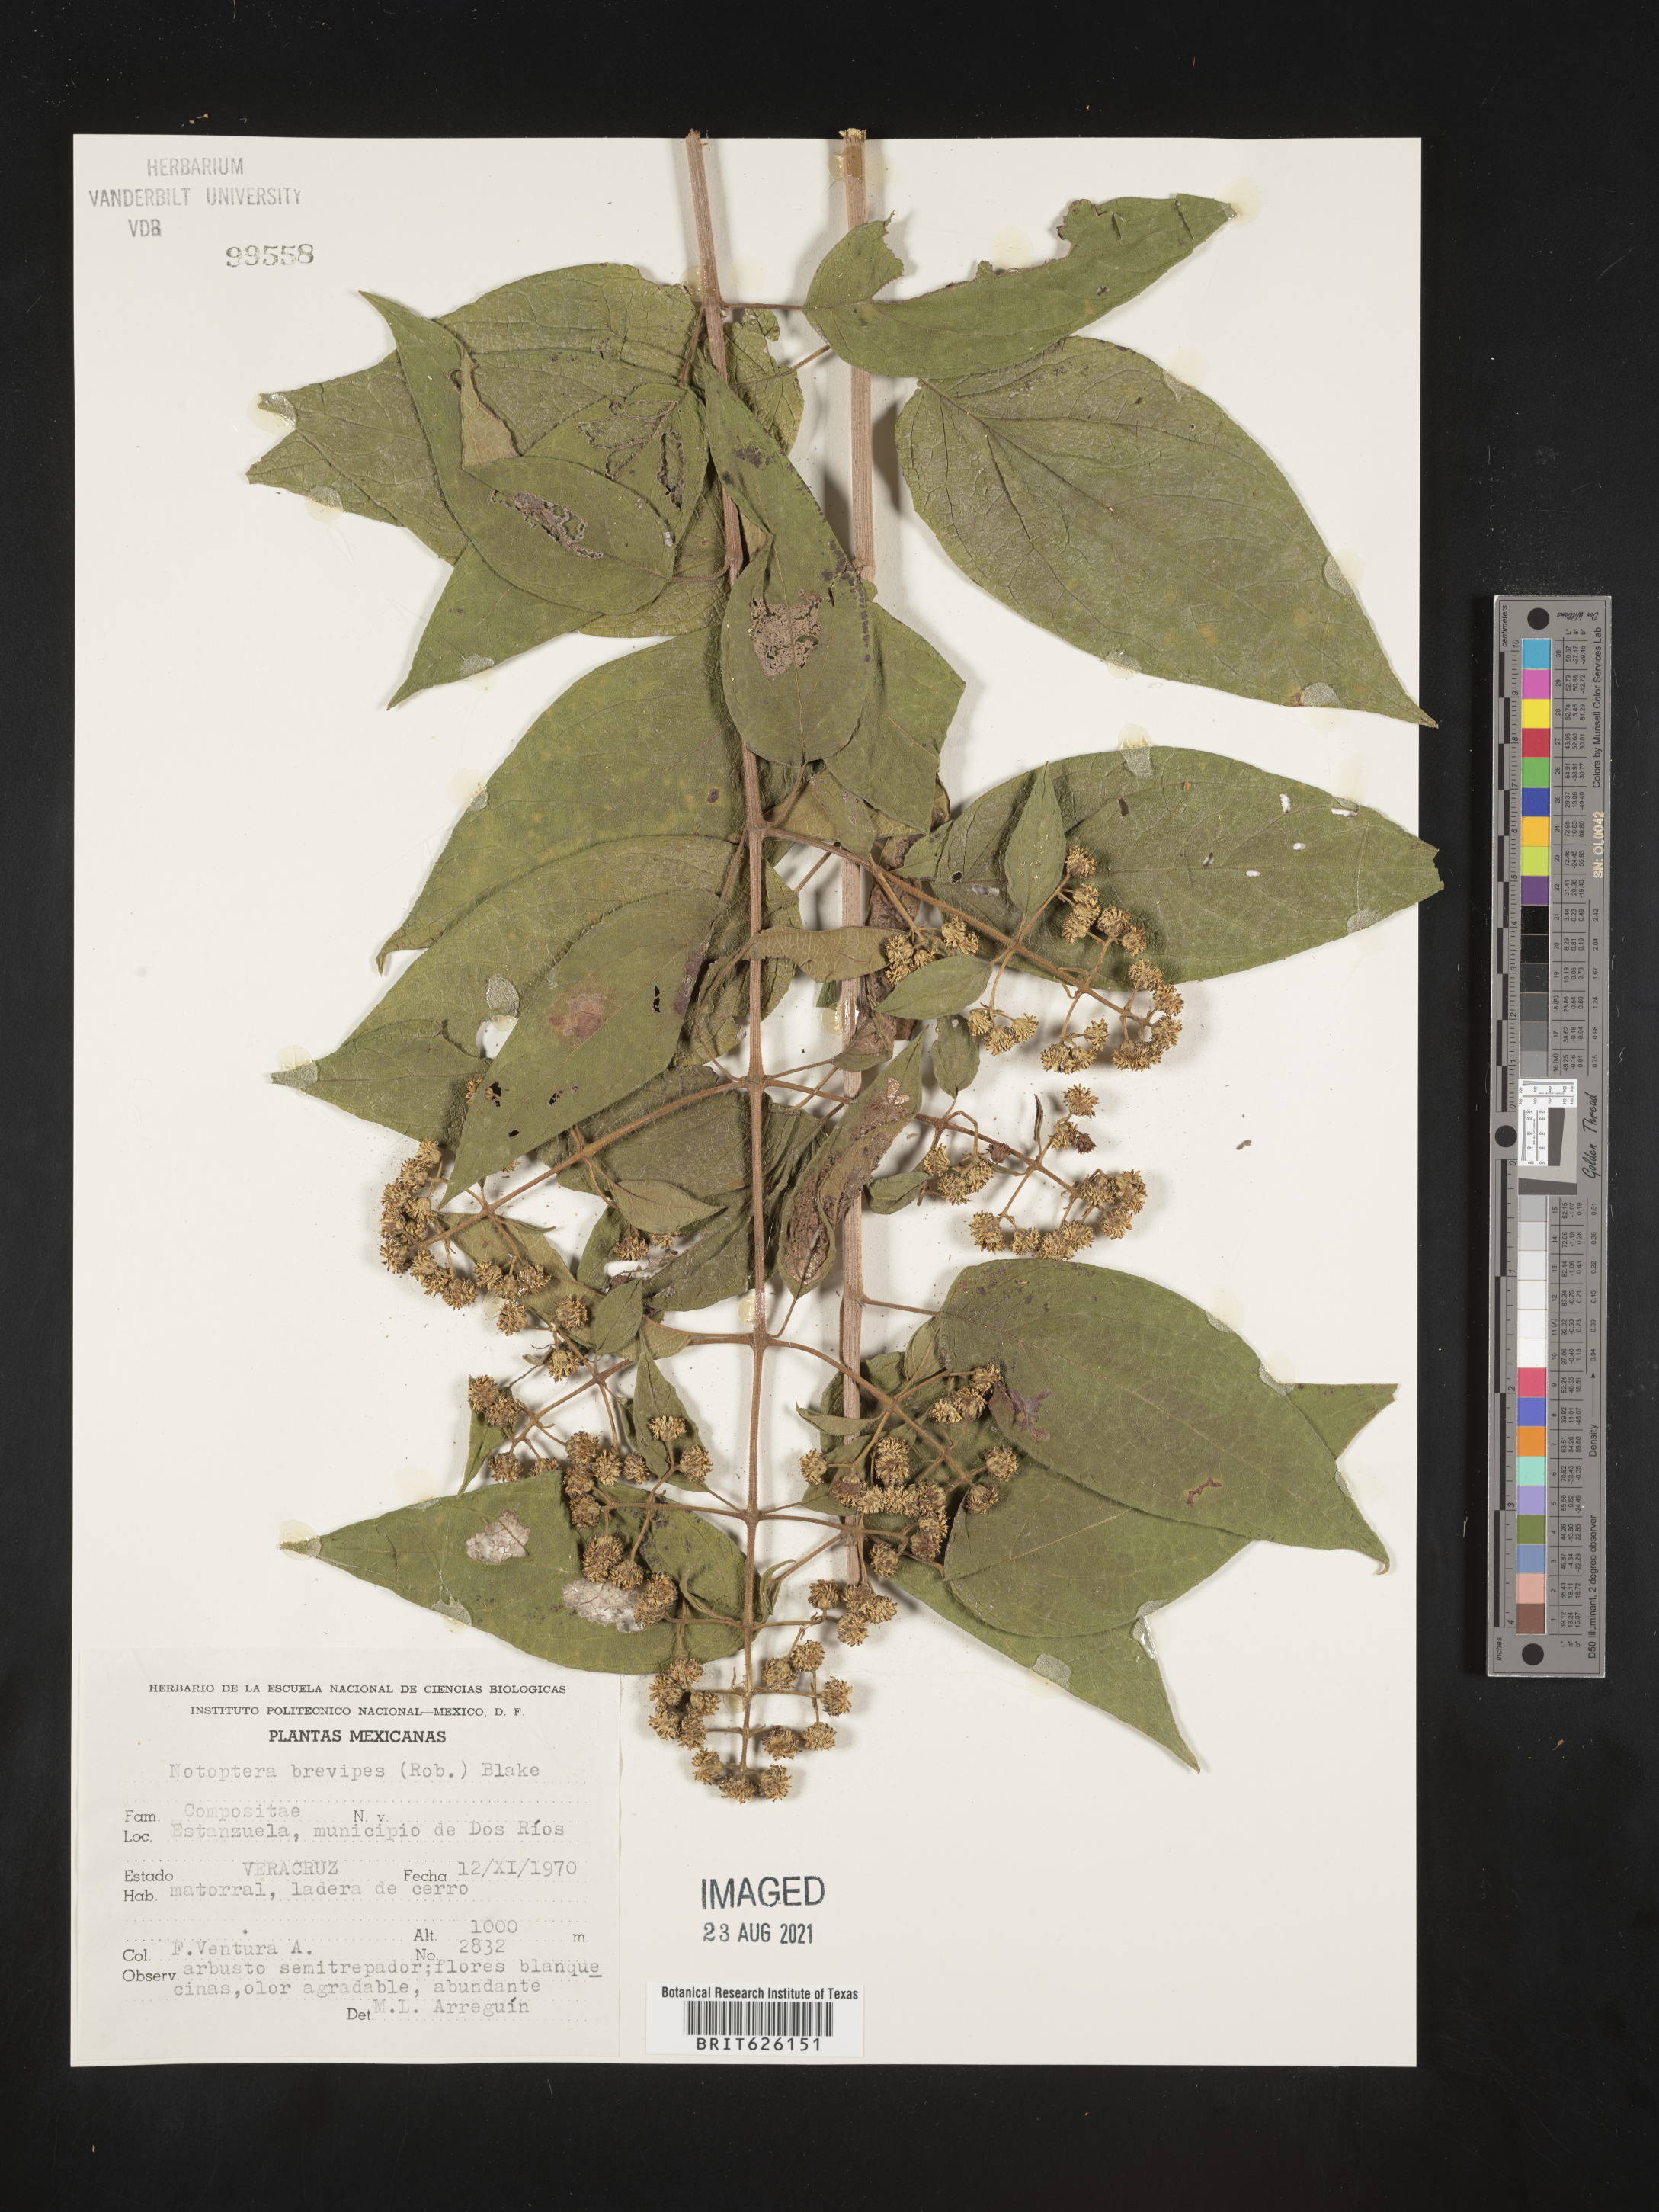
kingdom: Plantae
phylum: Tracheophyta
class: Magnoliopsida
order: Asterales
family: Asteraceae
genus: Otopappus
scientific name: Otopappus
